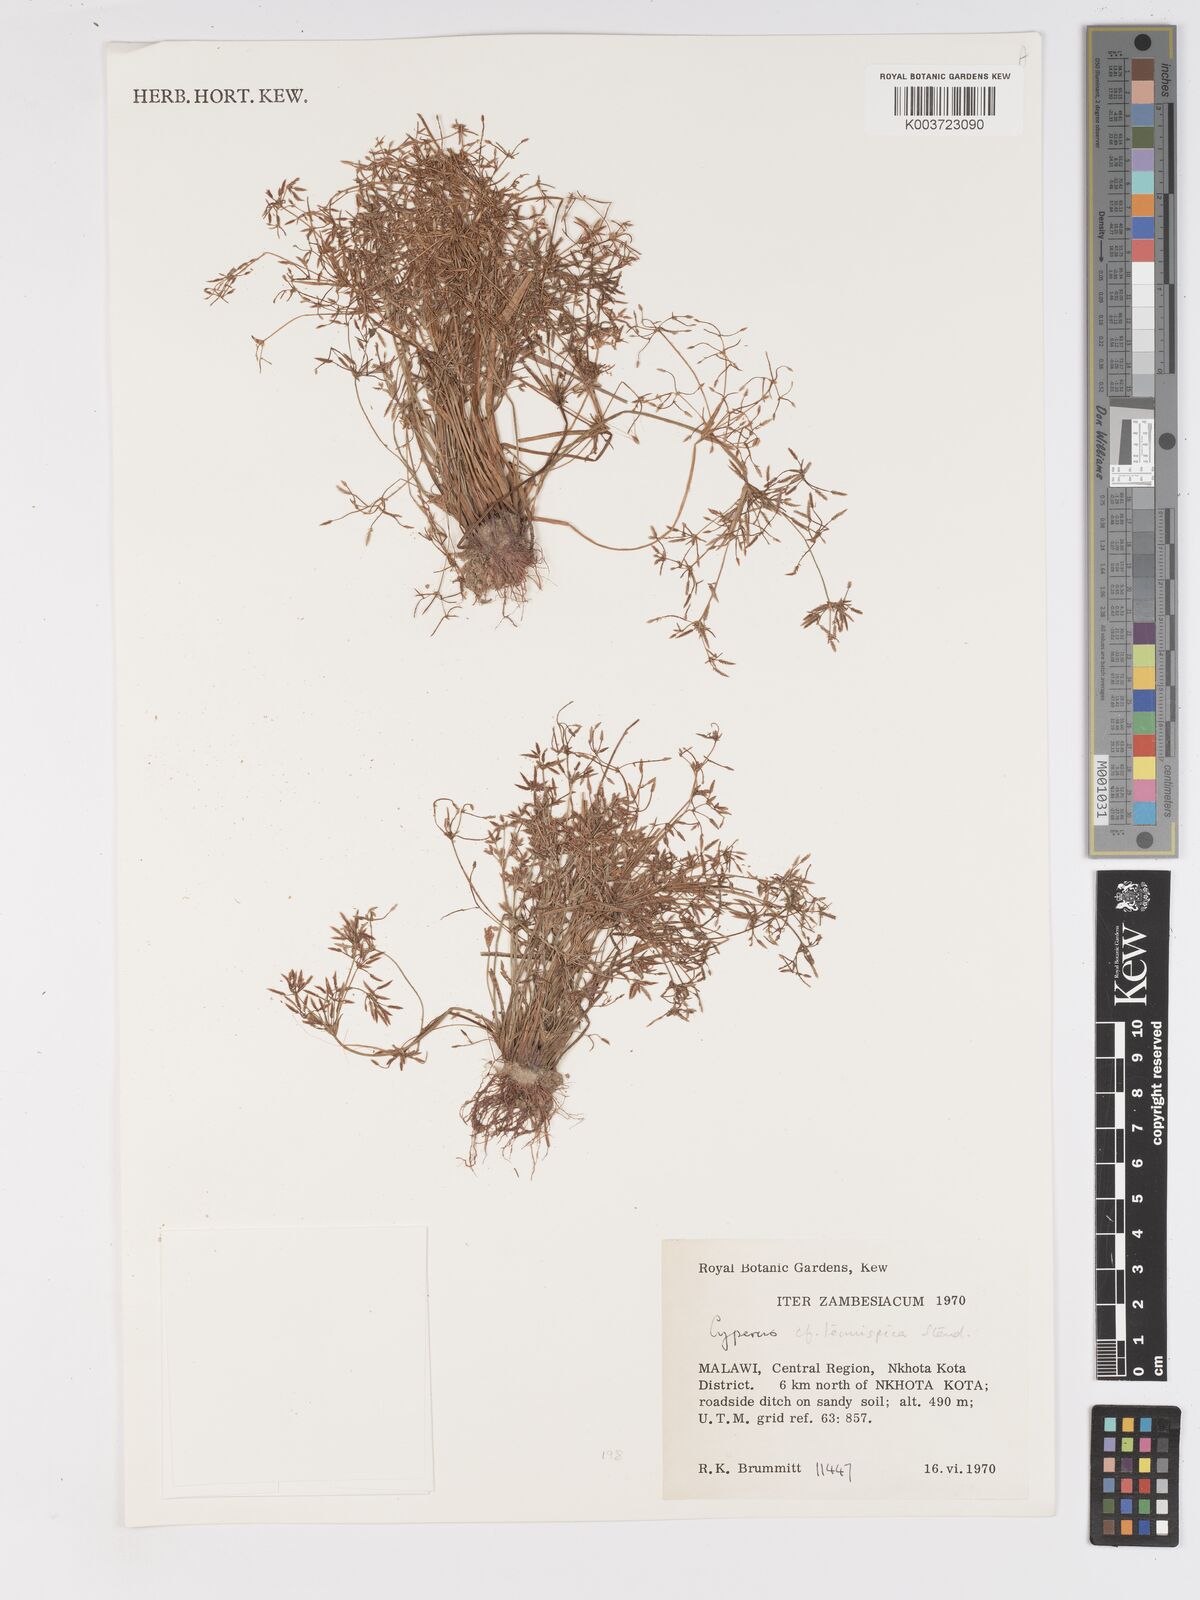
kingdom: Plantae
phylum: Tracheophyta
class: Liliopsida
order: Poales
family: Cyperaceae
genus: Cyperus
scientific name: Cyperus tenuispica
